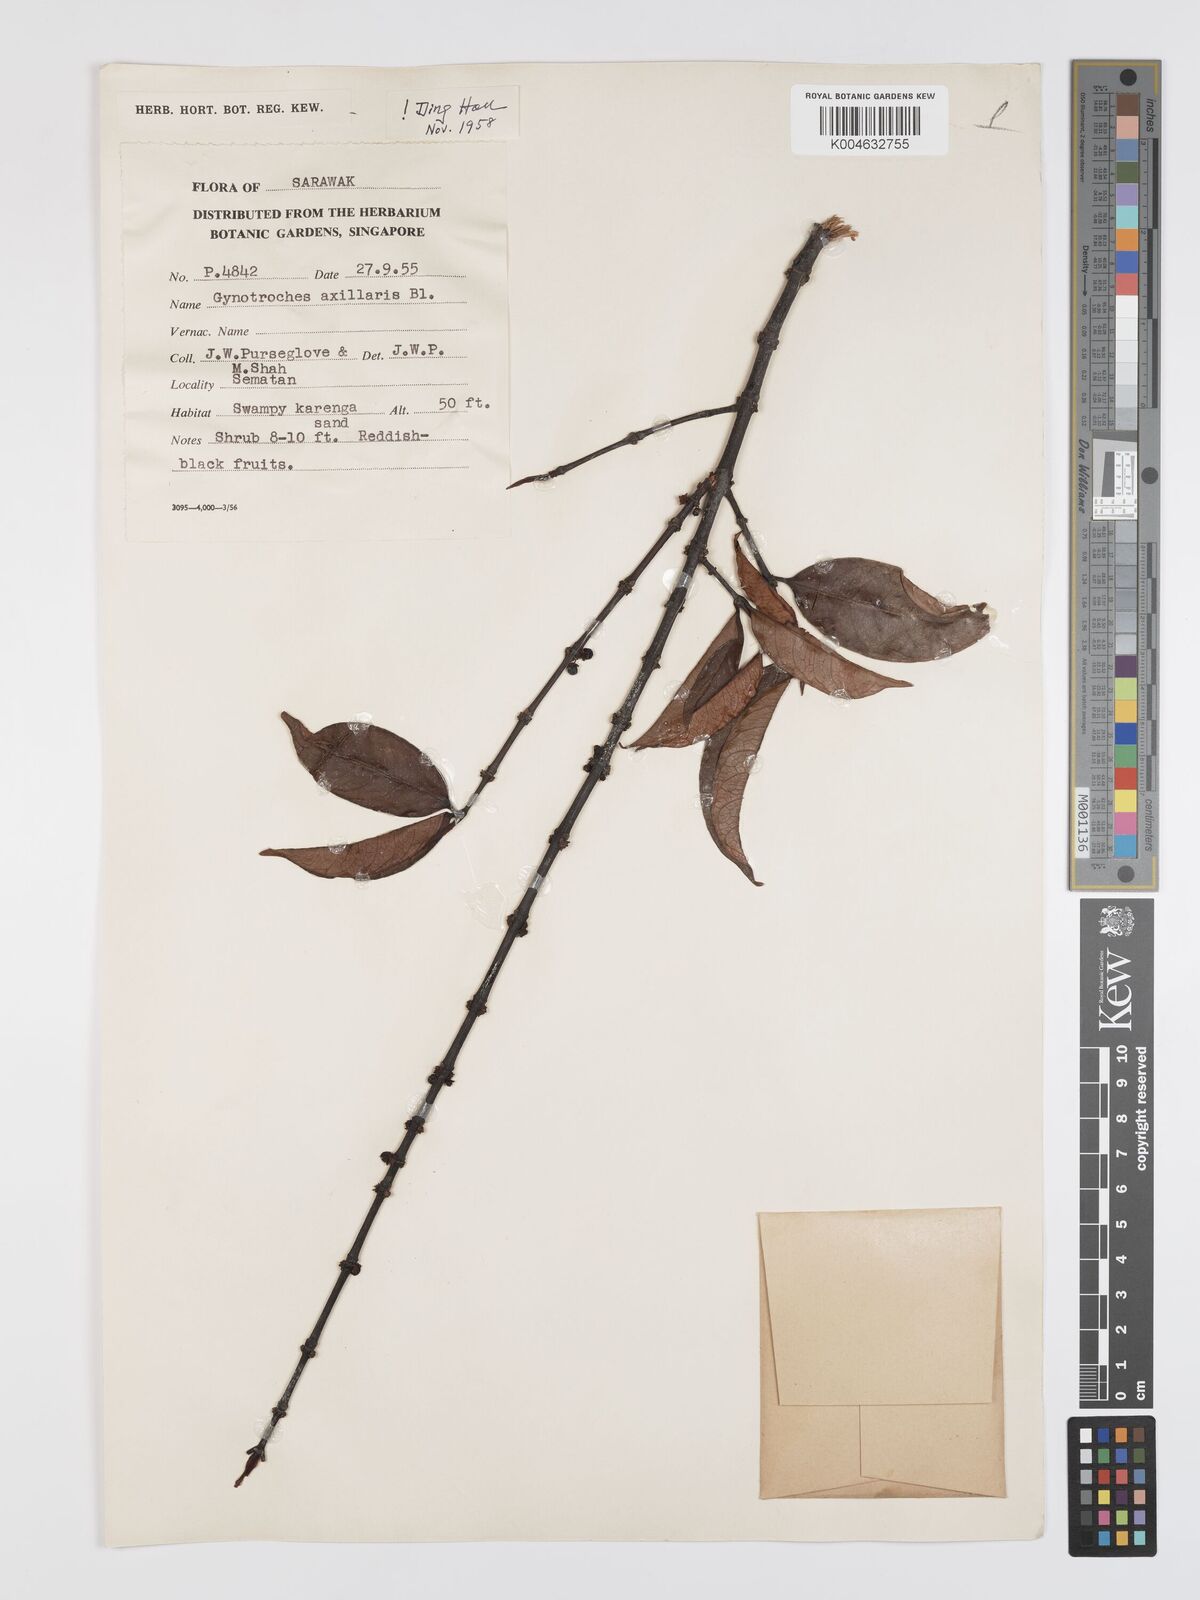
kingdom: Plantae
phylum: Tracheophyta
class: Magnoliopsida
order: Malpighiales
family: Rhizophoraceae
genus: Gynotroches
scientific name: Gynotroches axillaris
